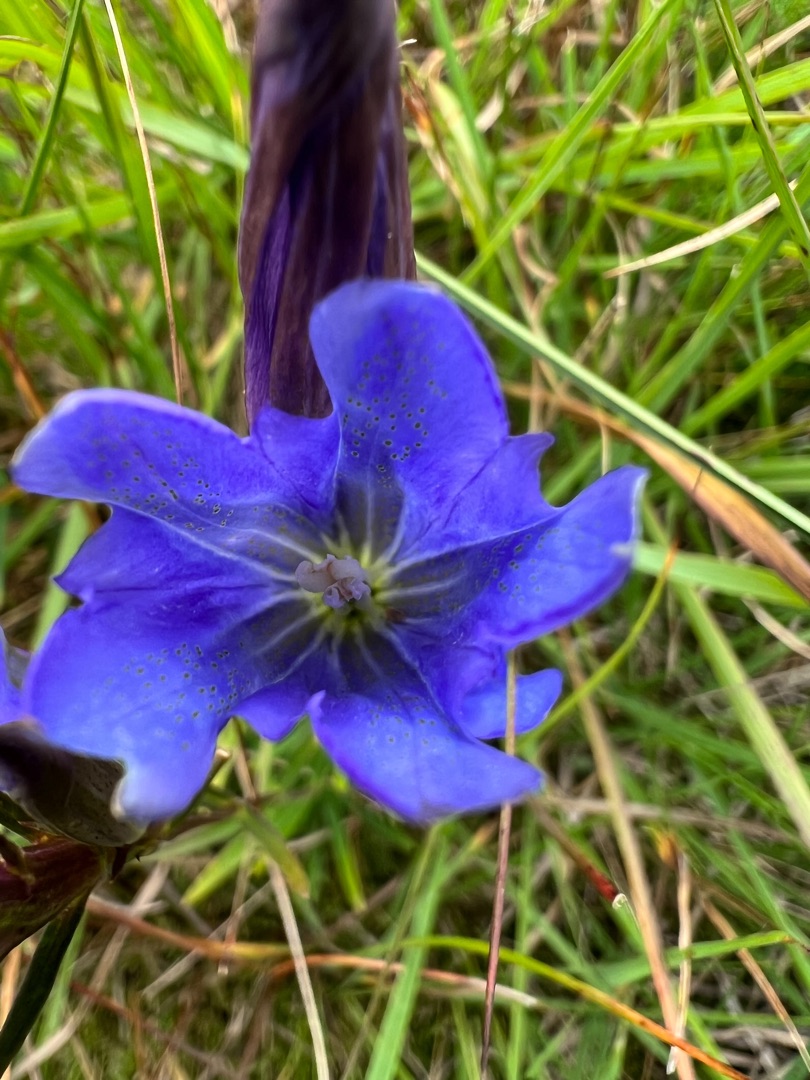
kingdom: Plantae
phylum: Tracheophyta
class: Magnoliopsida
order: Gentianales
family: Gentianaceae
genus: Gentiana
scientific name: Gentiana pneumonanthe
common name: Klokke-ensian
